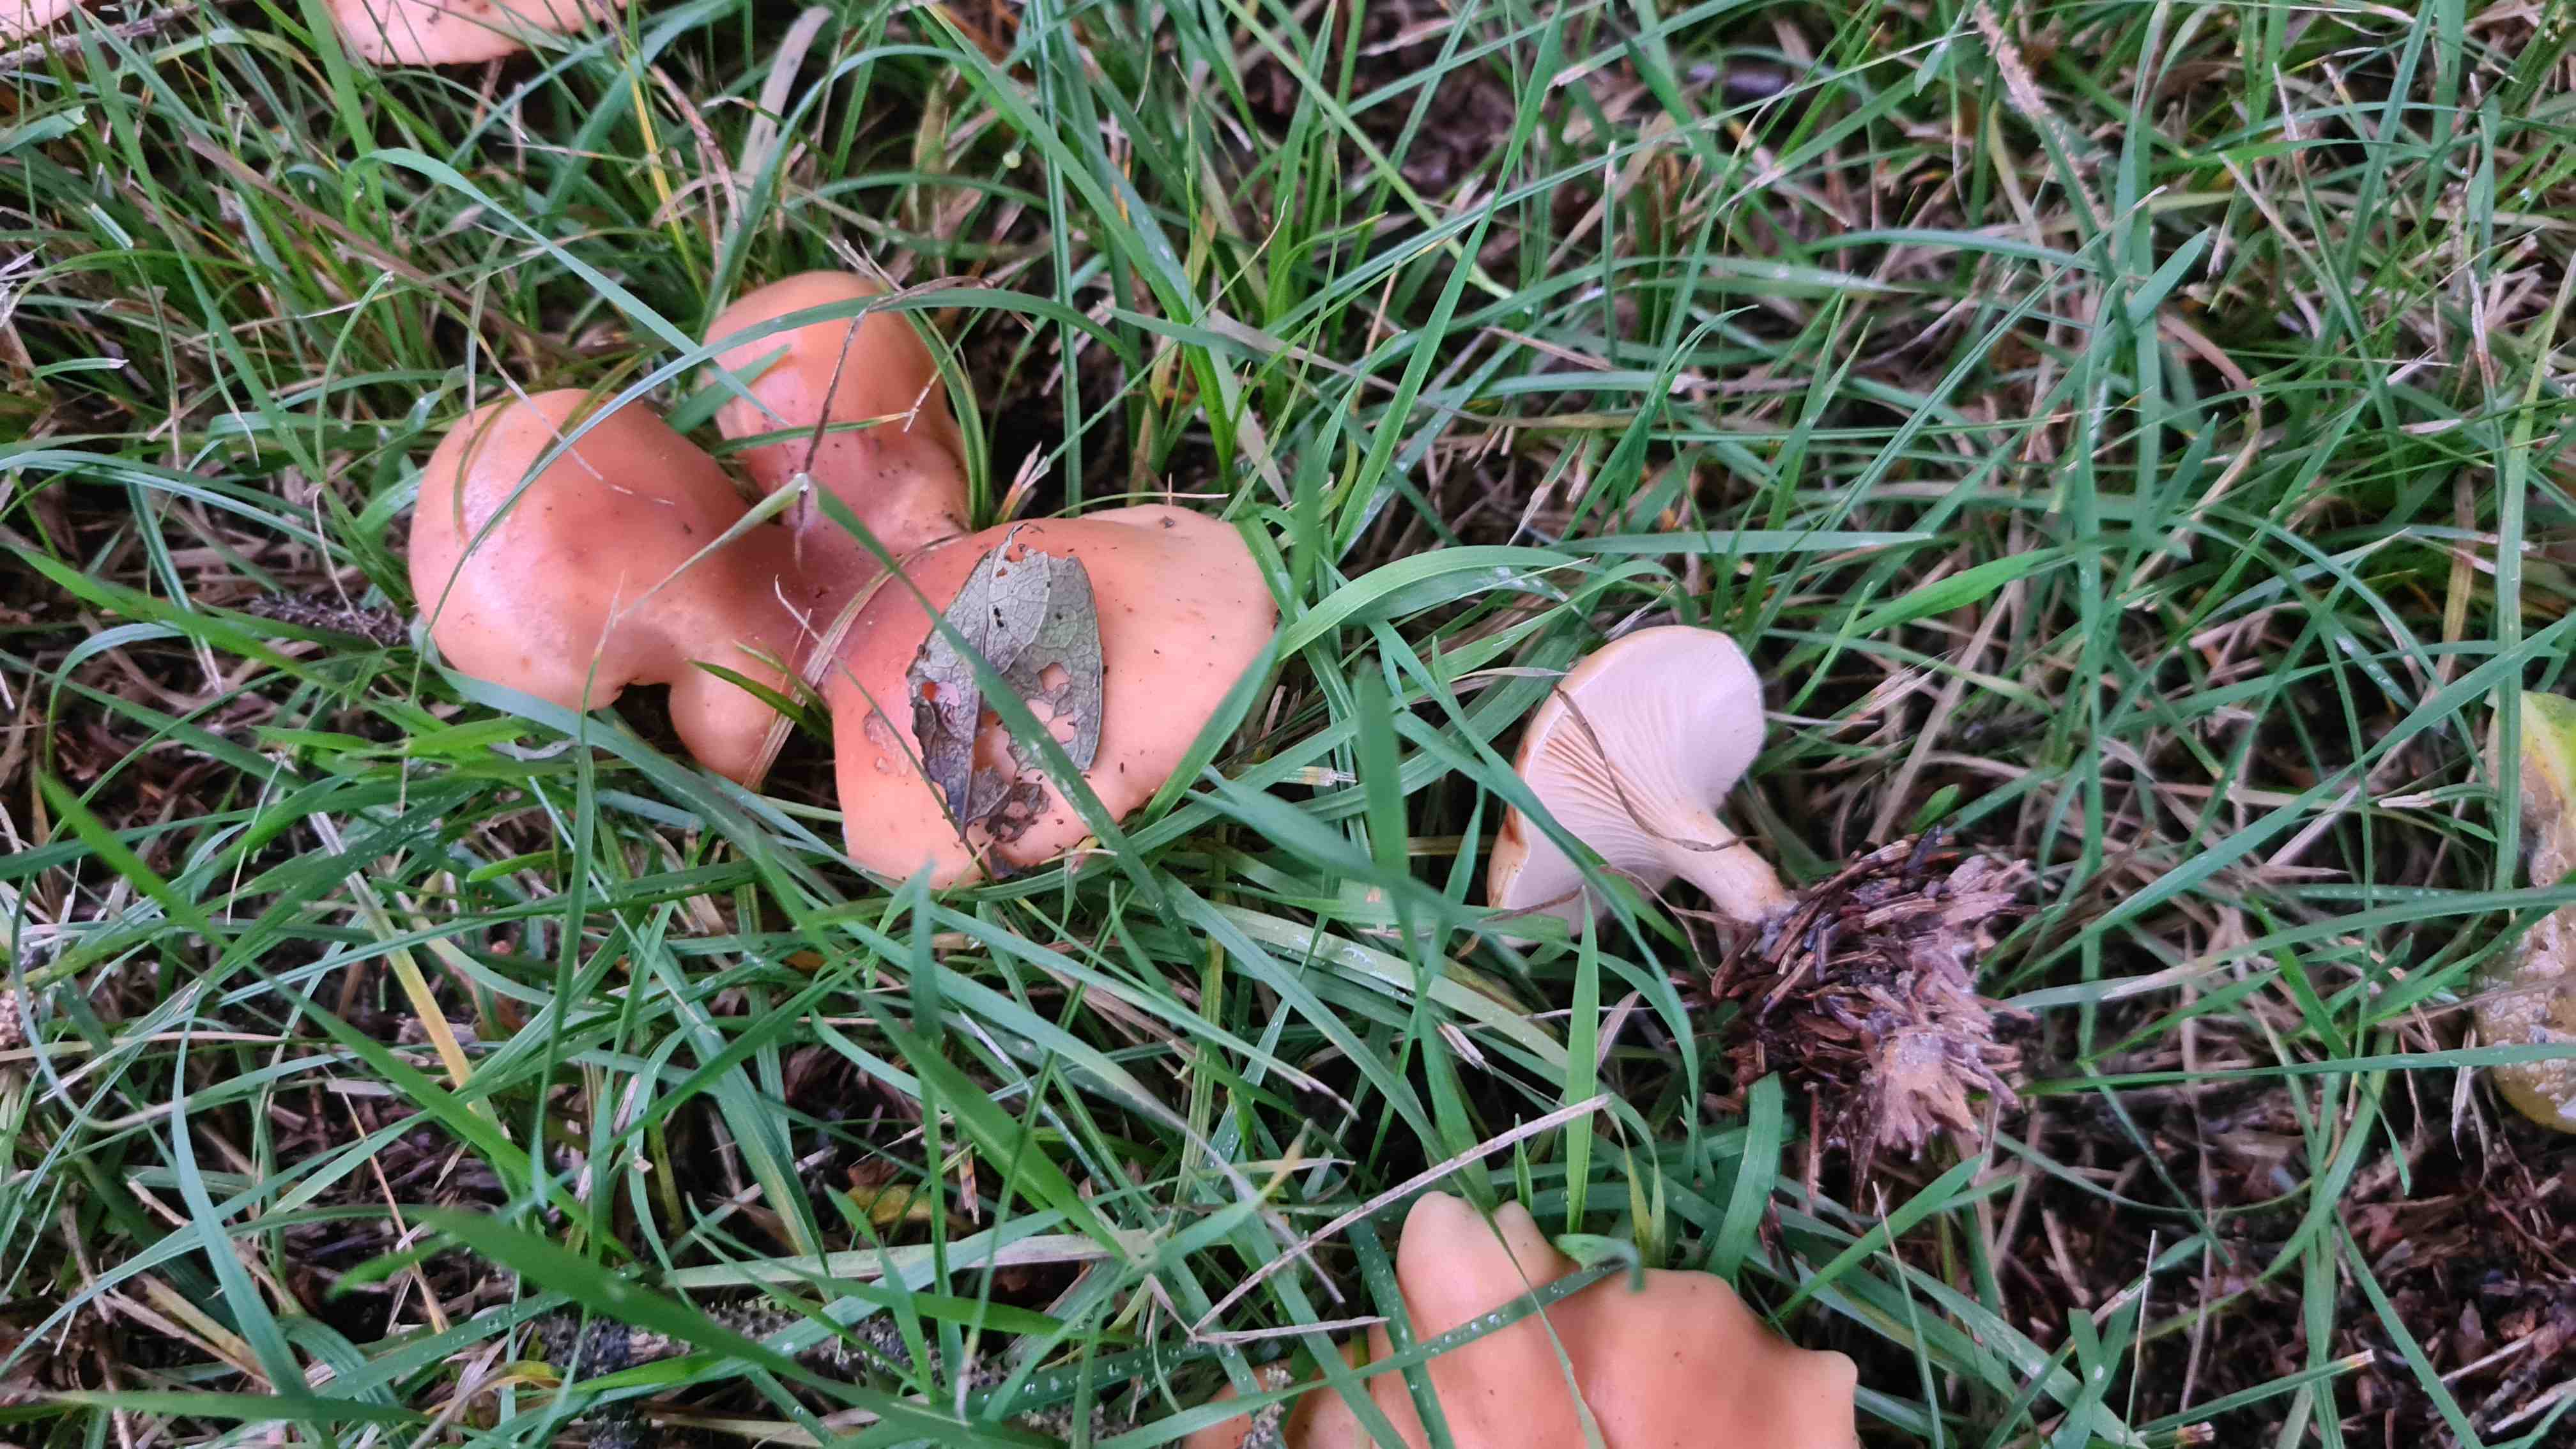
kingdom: Fungi
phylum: Basidiomycota
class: Agaricomycetes
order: Agaricales
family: Tricholomataceae
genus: Paralepista
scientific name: Paralepista flaccida
